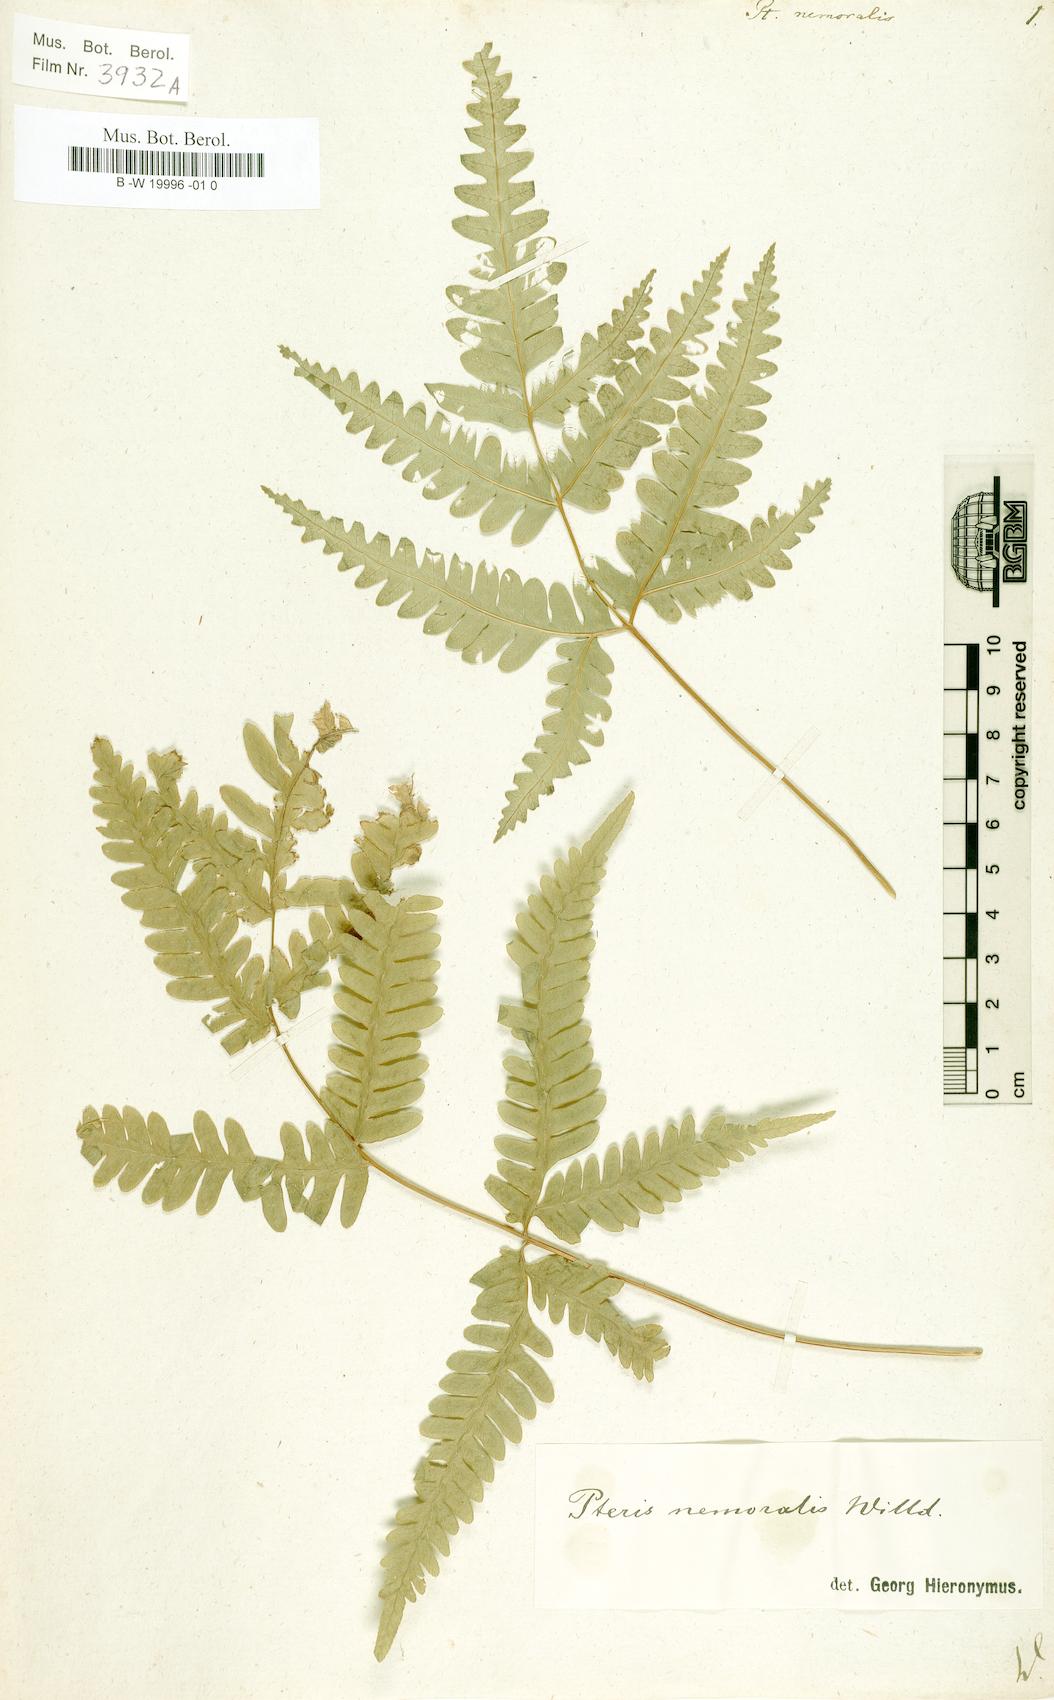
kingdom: Plantae
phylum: Tracheophyta
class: Polypodiopsida
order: Polypodiales
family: Pteridaceae
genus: Pteris
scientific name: Pteris linearis
